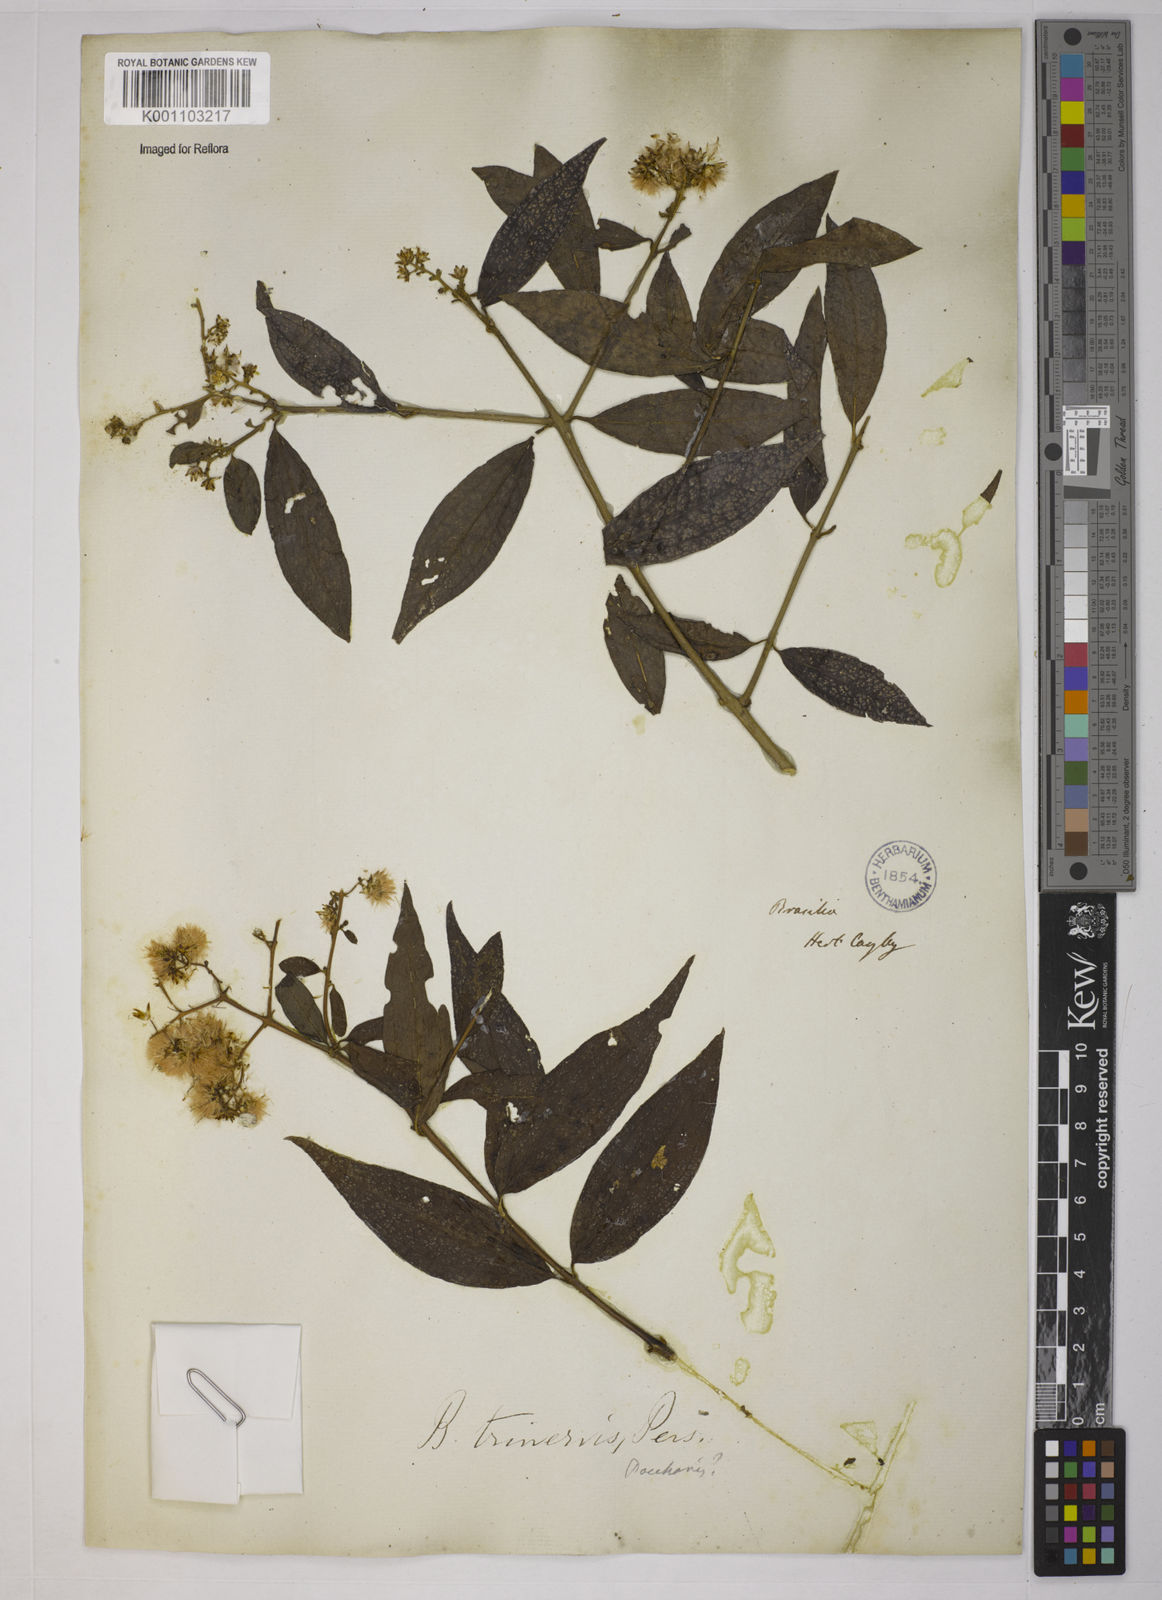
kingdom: Plantae
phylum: Tracheophyta
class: Magnoliopsida
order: Asterales
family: Asteraceae
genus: Baccharis
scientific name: Baccharis trinervis
